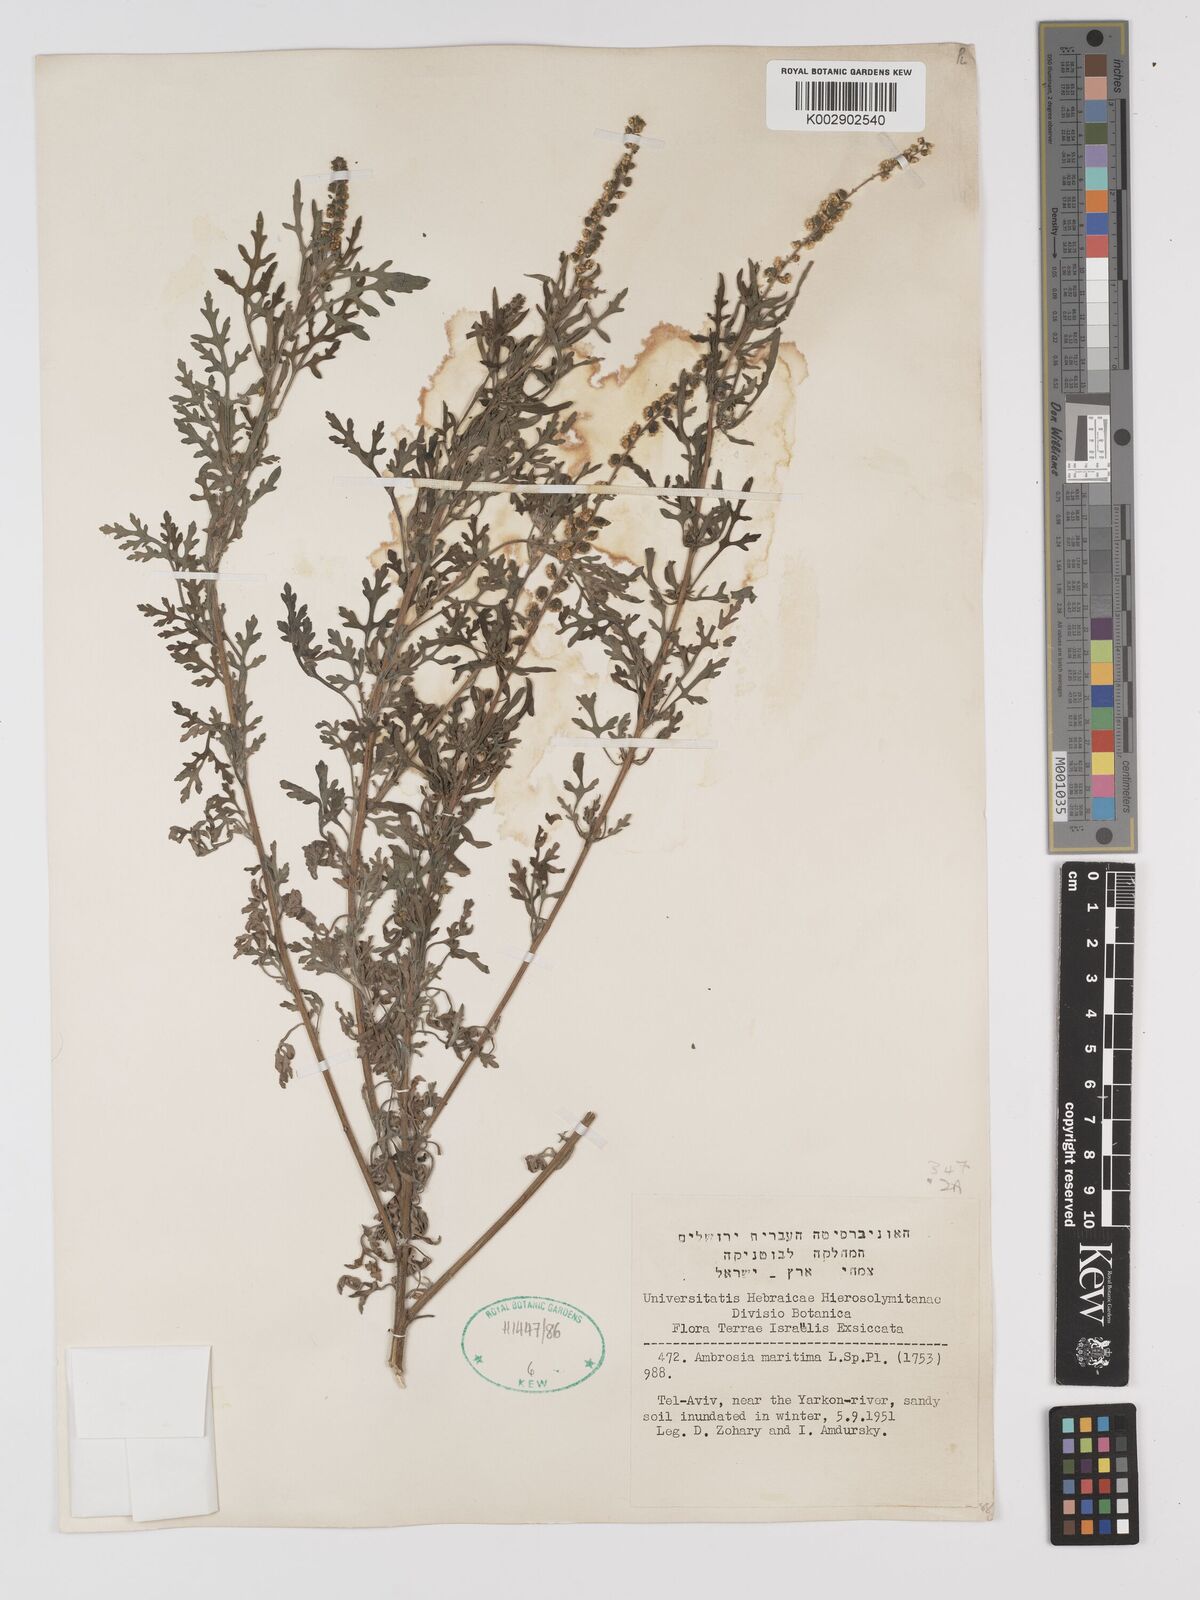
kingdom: Plantae
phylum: Tracheophyta
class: Magnoliopsida
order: Asterales
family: Asteraceae
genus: Ambrosia
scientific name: Ambrosia maritima
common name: Sea ambrosia
